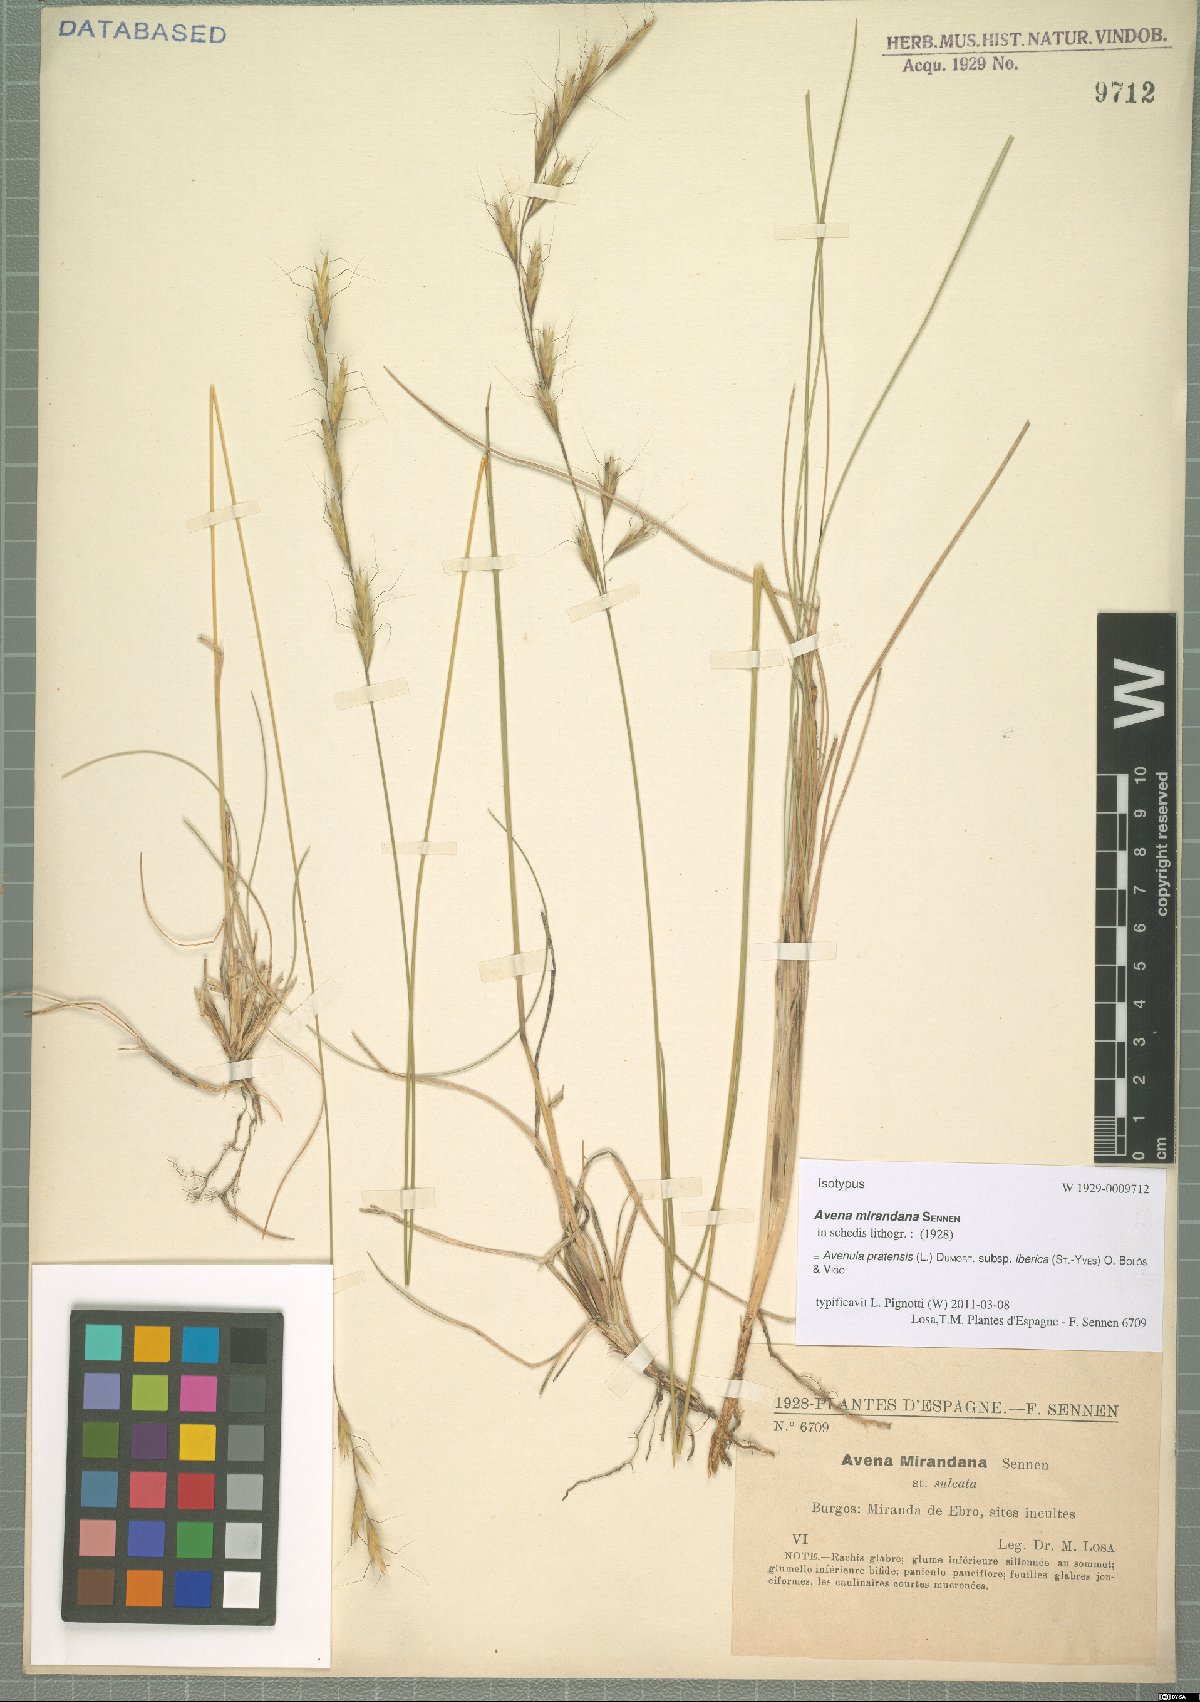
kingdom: Plantae
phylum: Tracheophyta
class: Liliopsida
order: Poales
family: Poaceae
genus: Helictochloa
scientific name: Helictochloa pratensis
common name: Meadow oat grass
